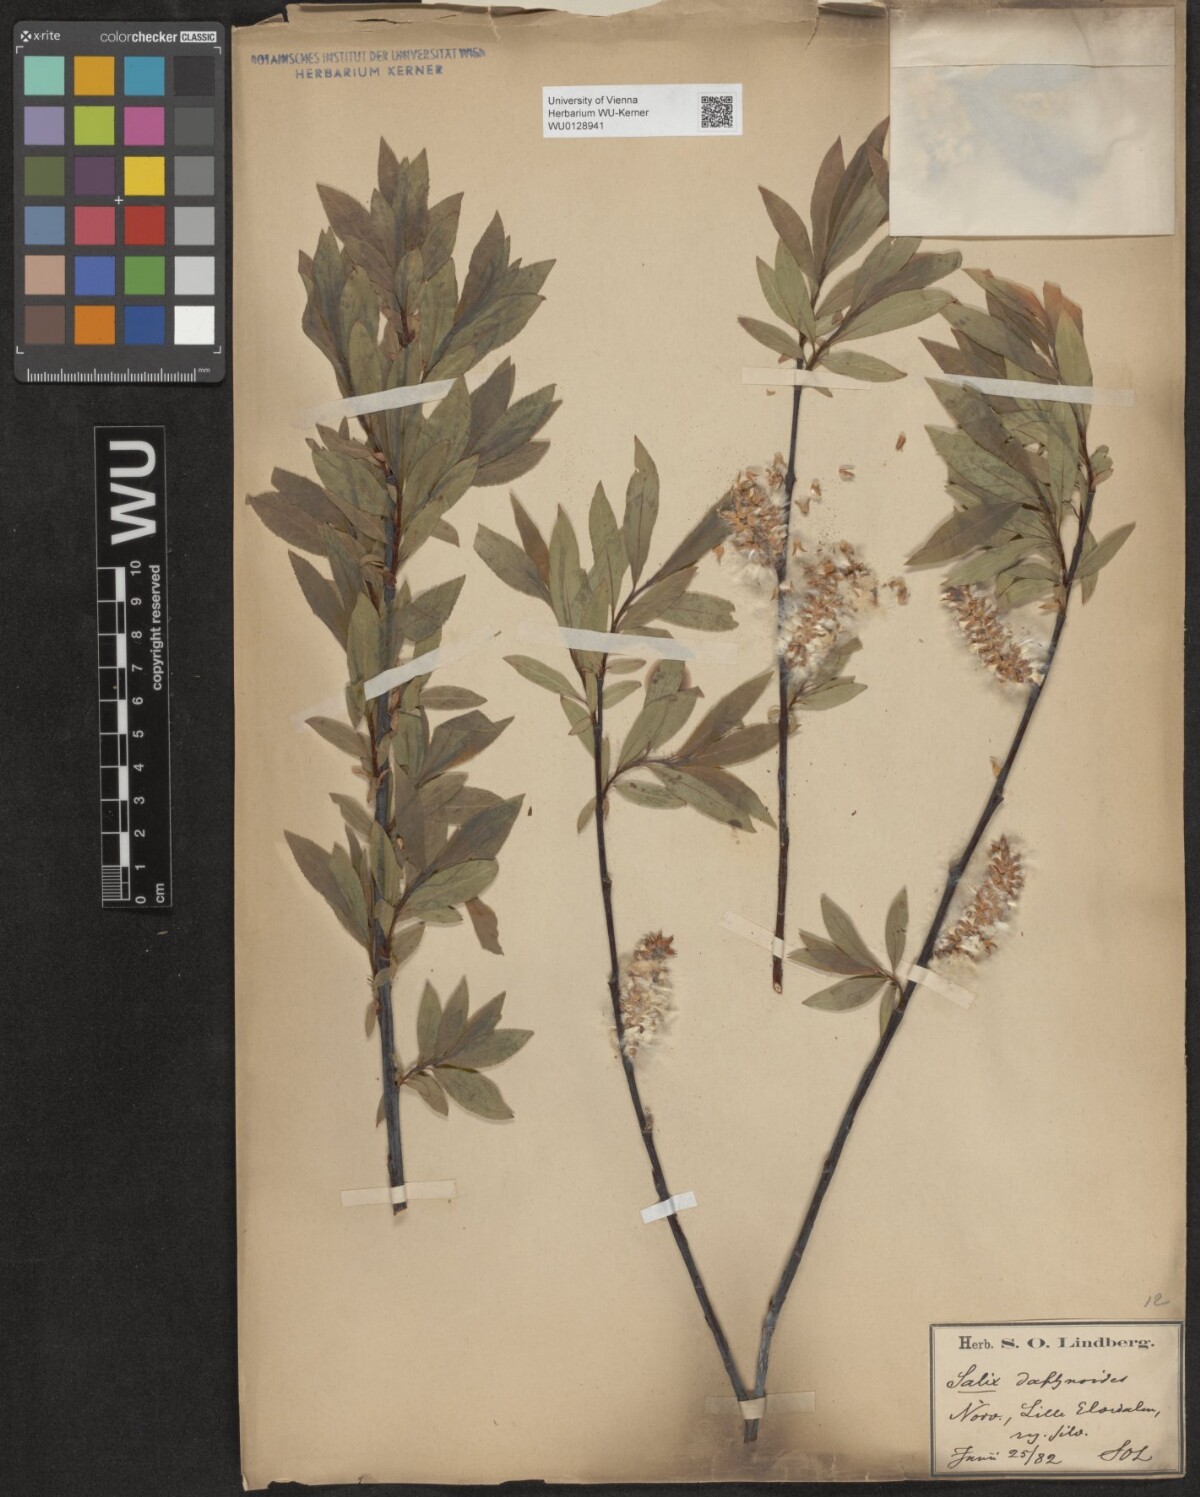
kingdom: Plantae
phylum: Tracheophyta
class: Magnoliopsida
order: Malpighiales
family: Salicaceae
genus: Salix
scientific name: Salix daphnoides
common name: European violet-willow
